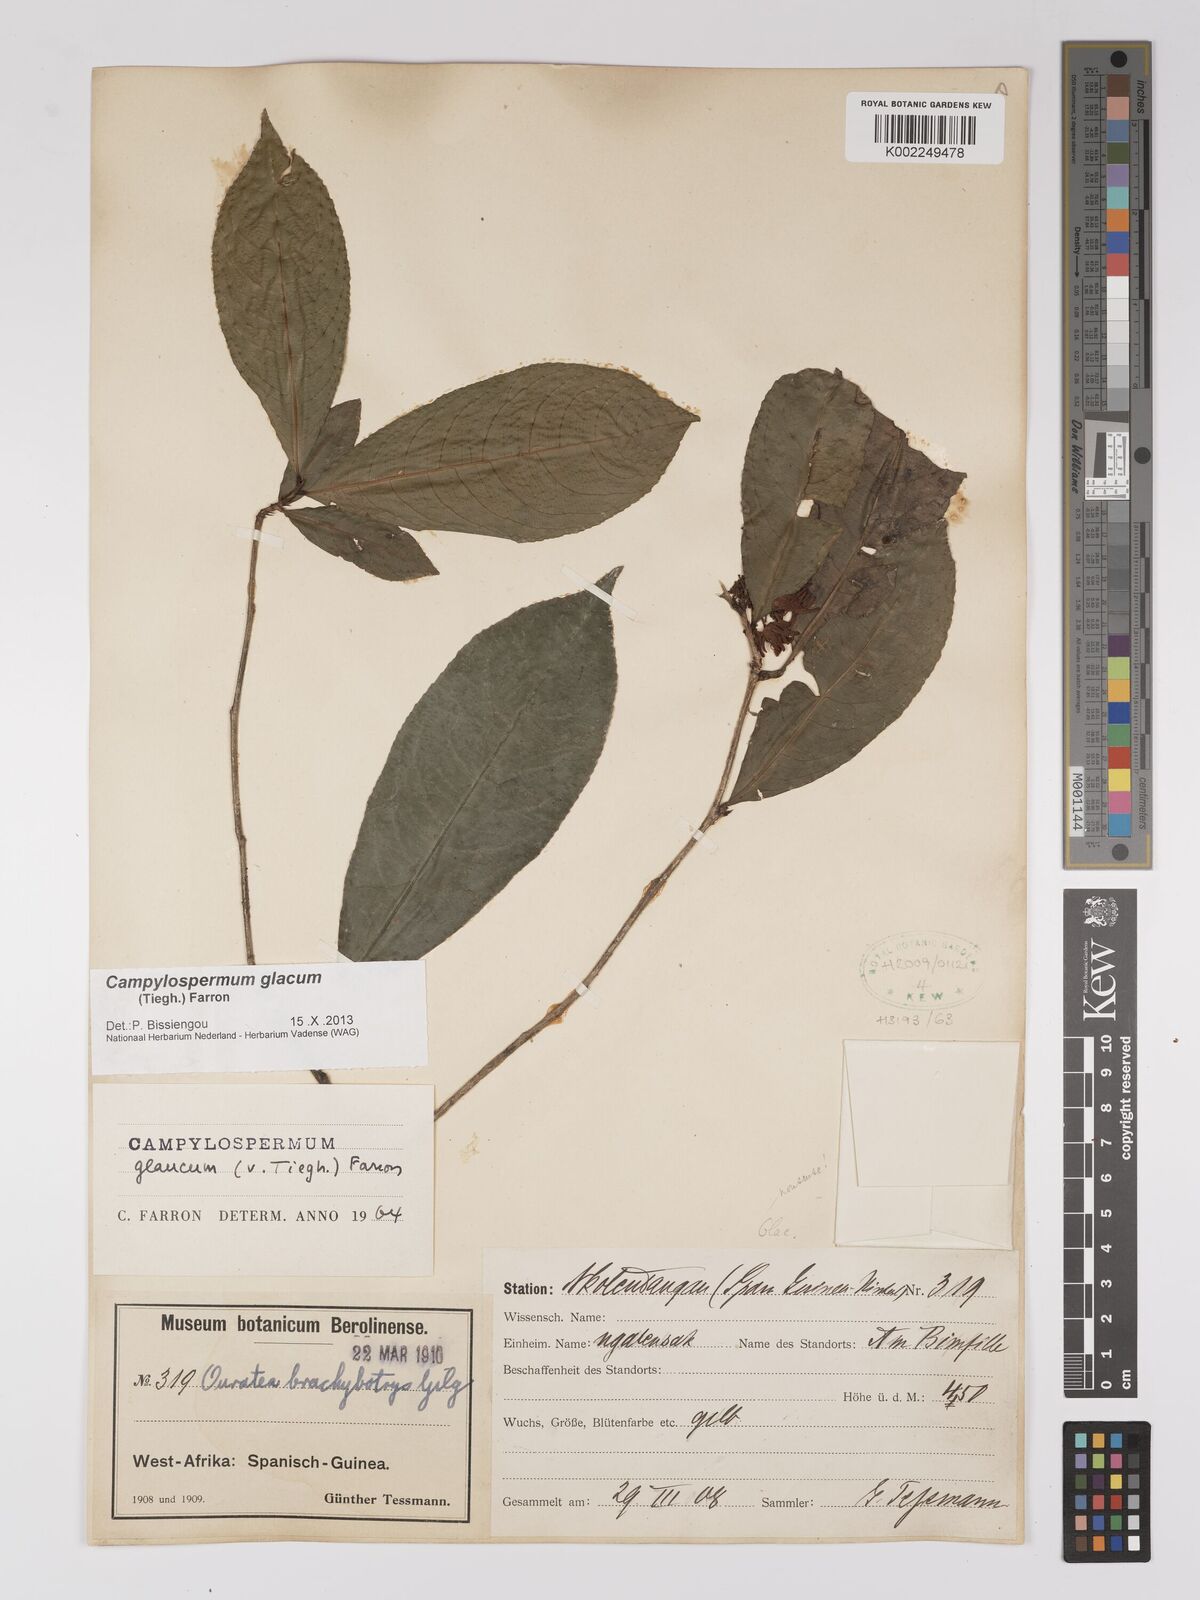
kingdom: Plantae
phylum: Tracheophyta
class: Magnoliopsida
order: Malpighiales
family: Ochnaceae
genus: Campylospermum
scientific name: Campylospermum glaucum
